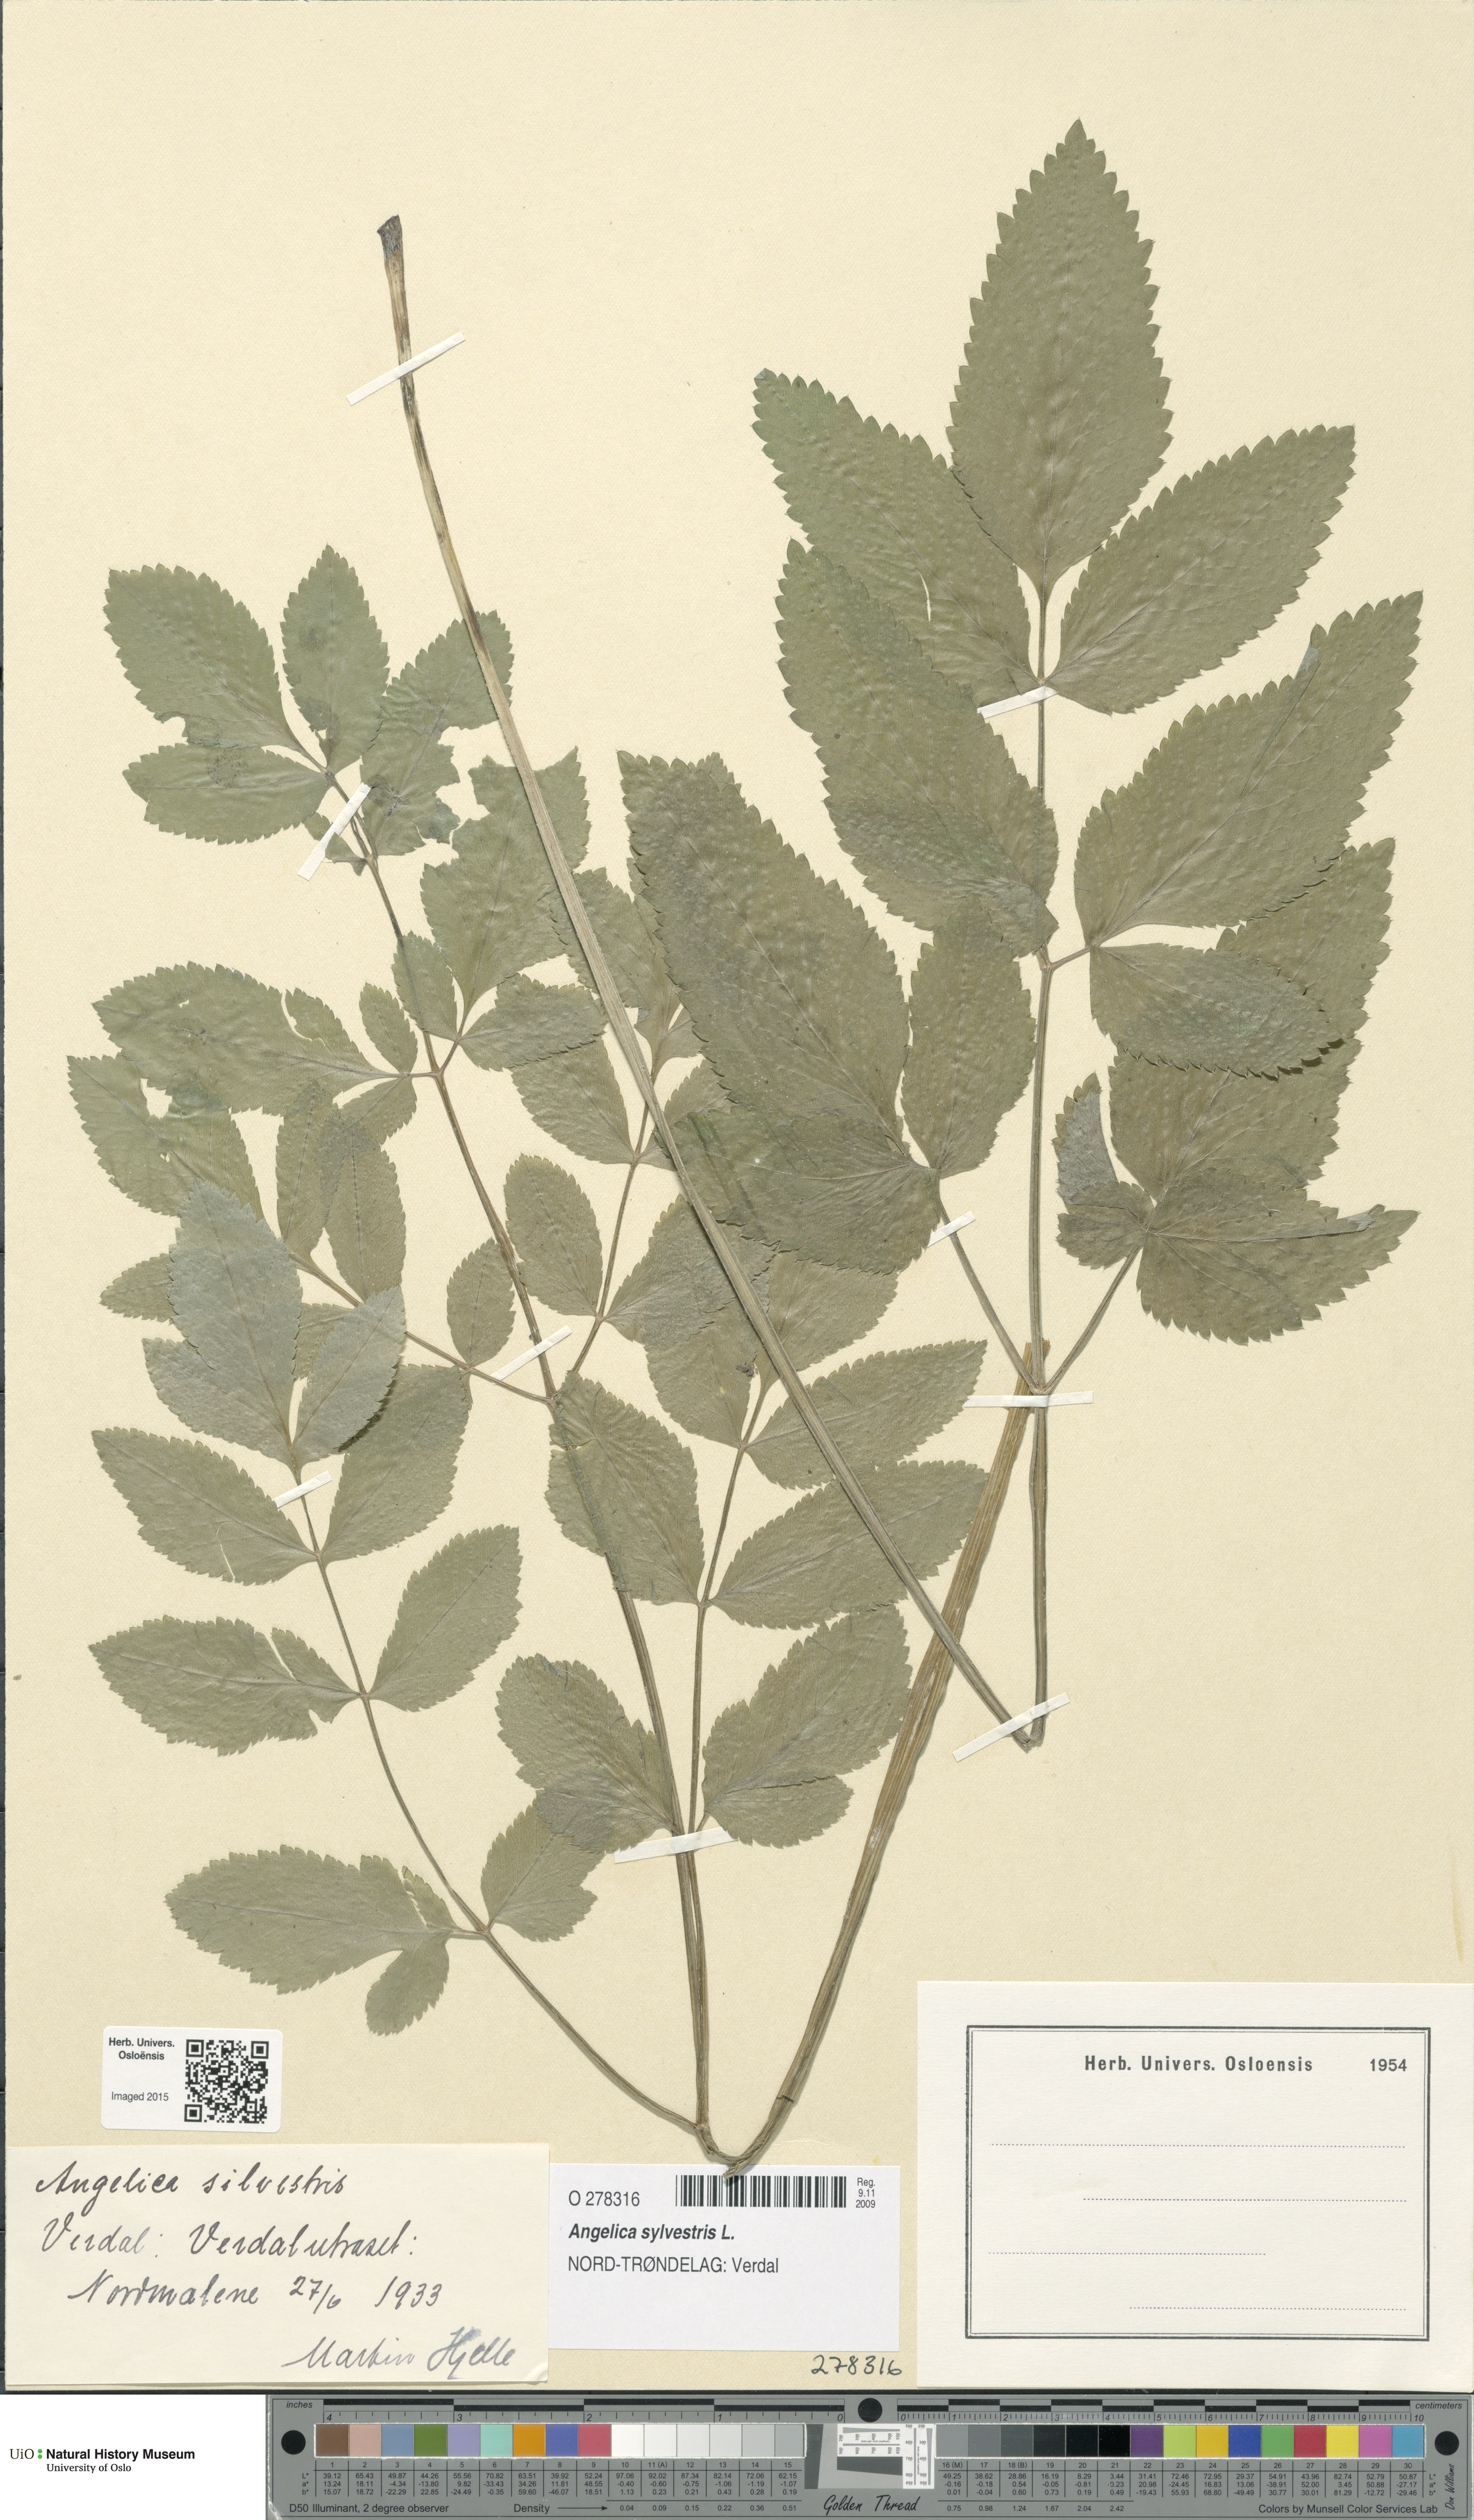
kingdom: Plantae
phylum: Tracheophyta
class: Magnoliopsida
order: Apiales
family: Apiaceae
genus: Angelica
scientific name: Angelica sylvestris
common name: Wild angelica
